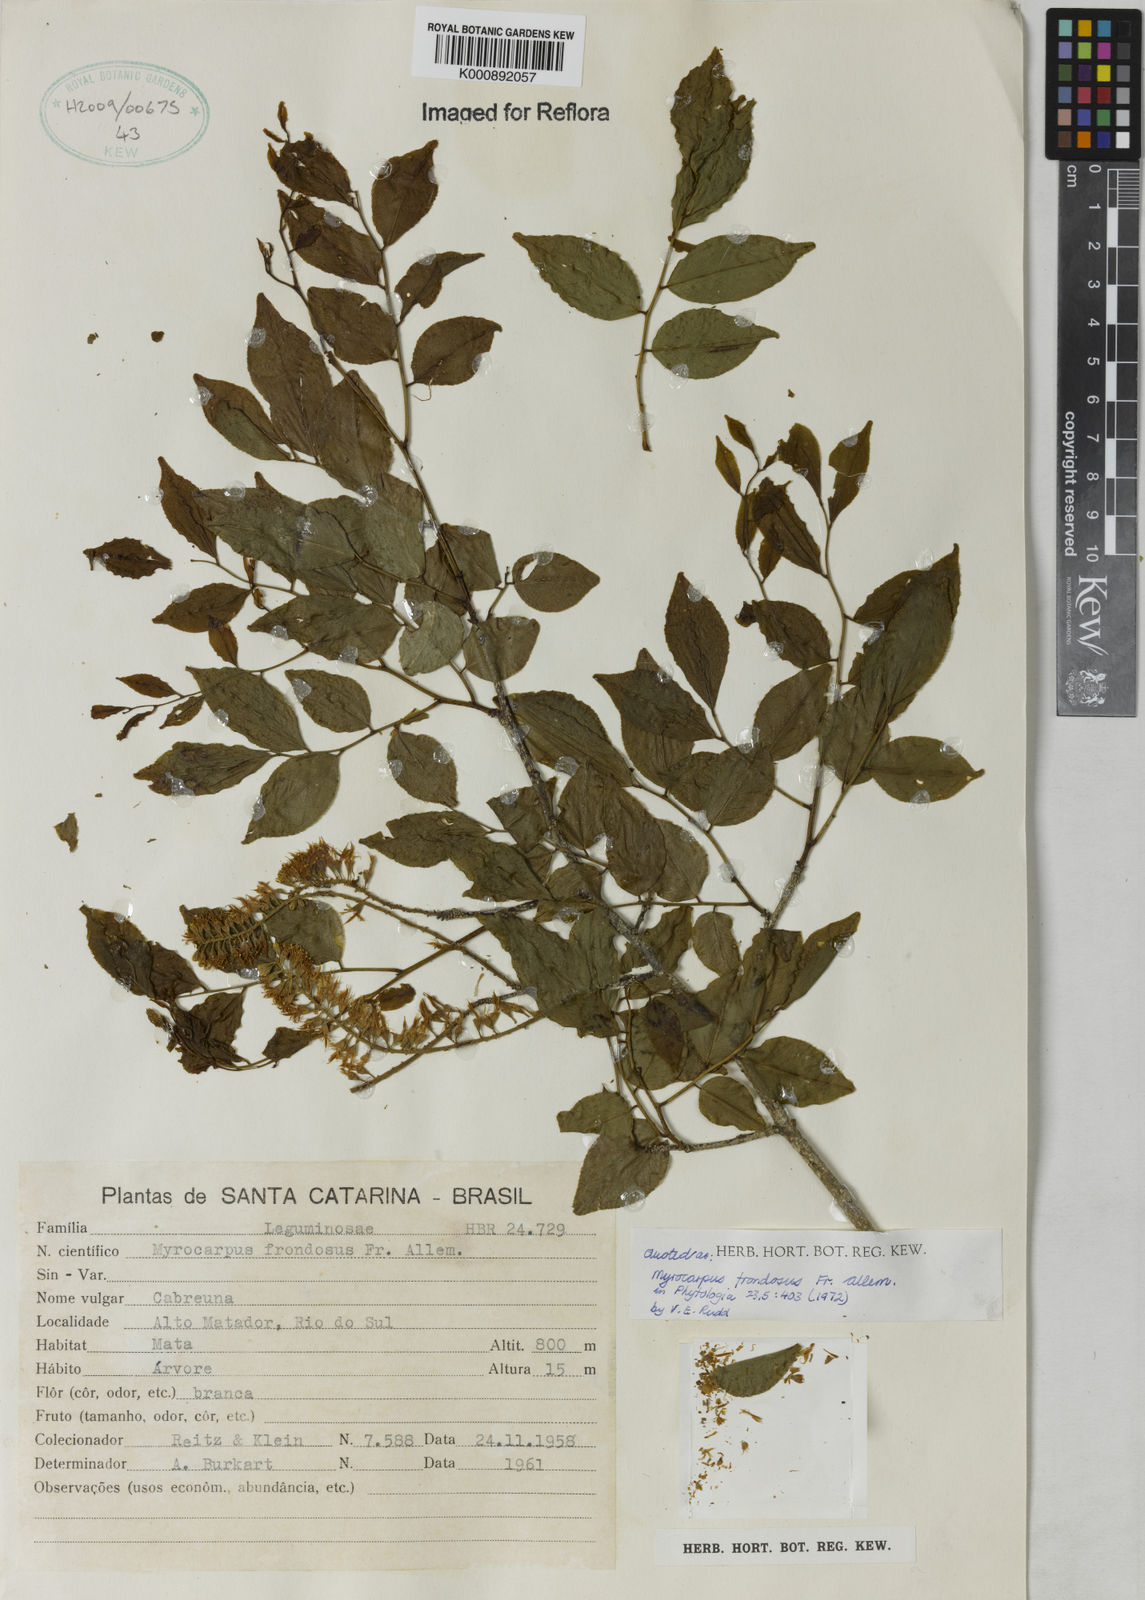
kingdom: Plantae
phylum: Tracheophyta
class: Magnoliopsida
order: Fabales
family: Fabaceae
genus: Myrocarpus
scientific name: Myrocarpus
